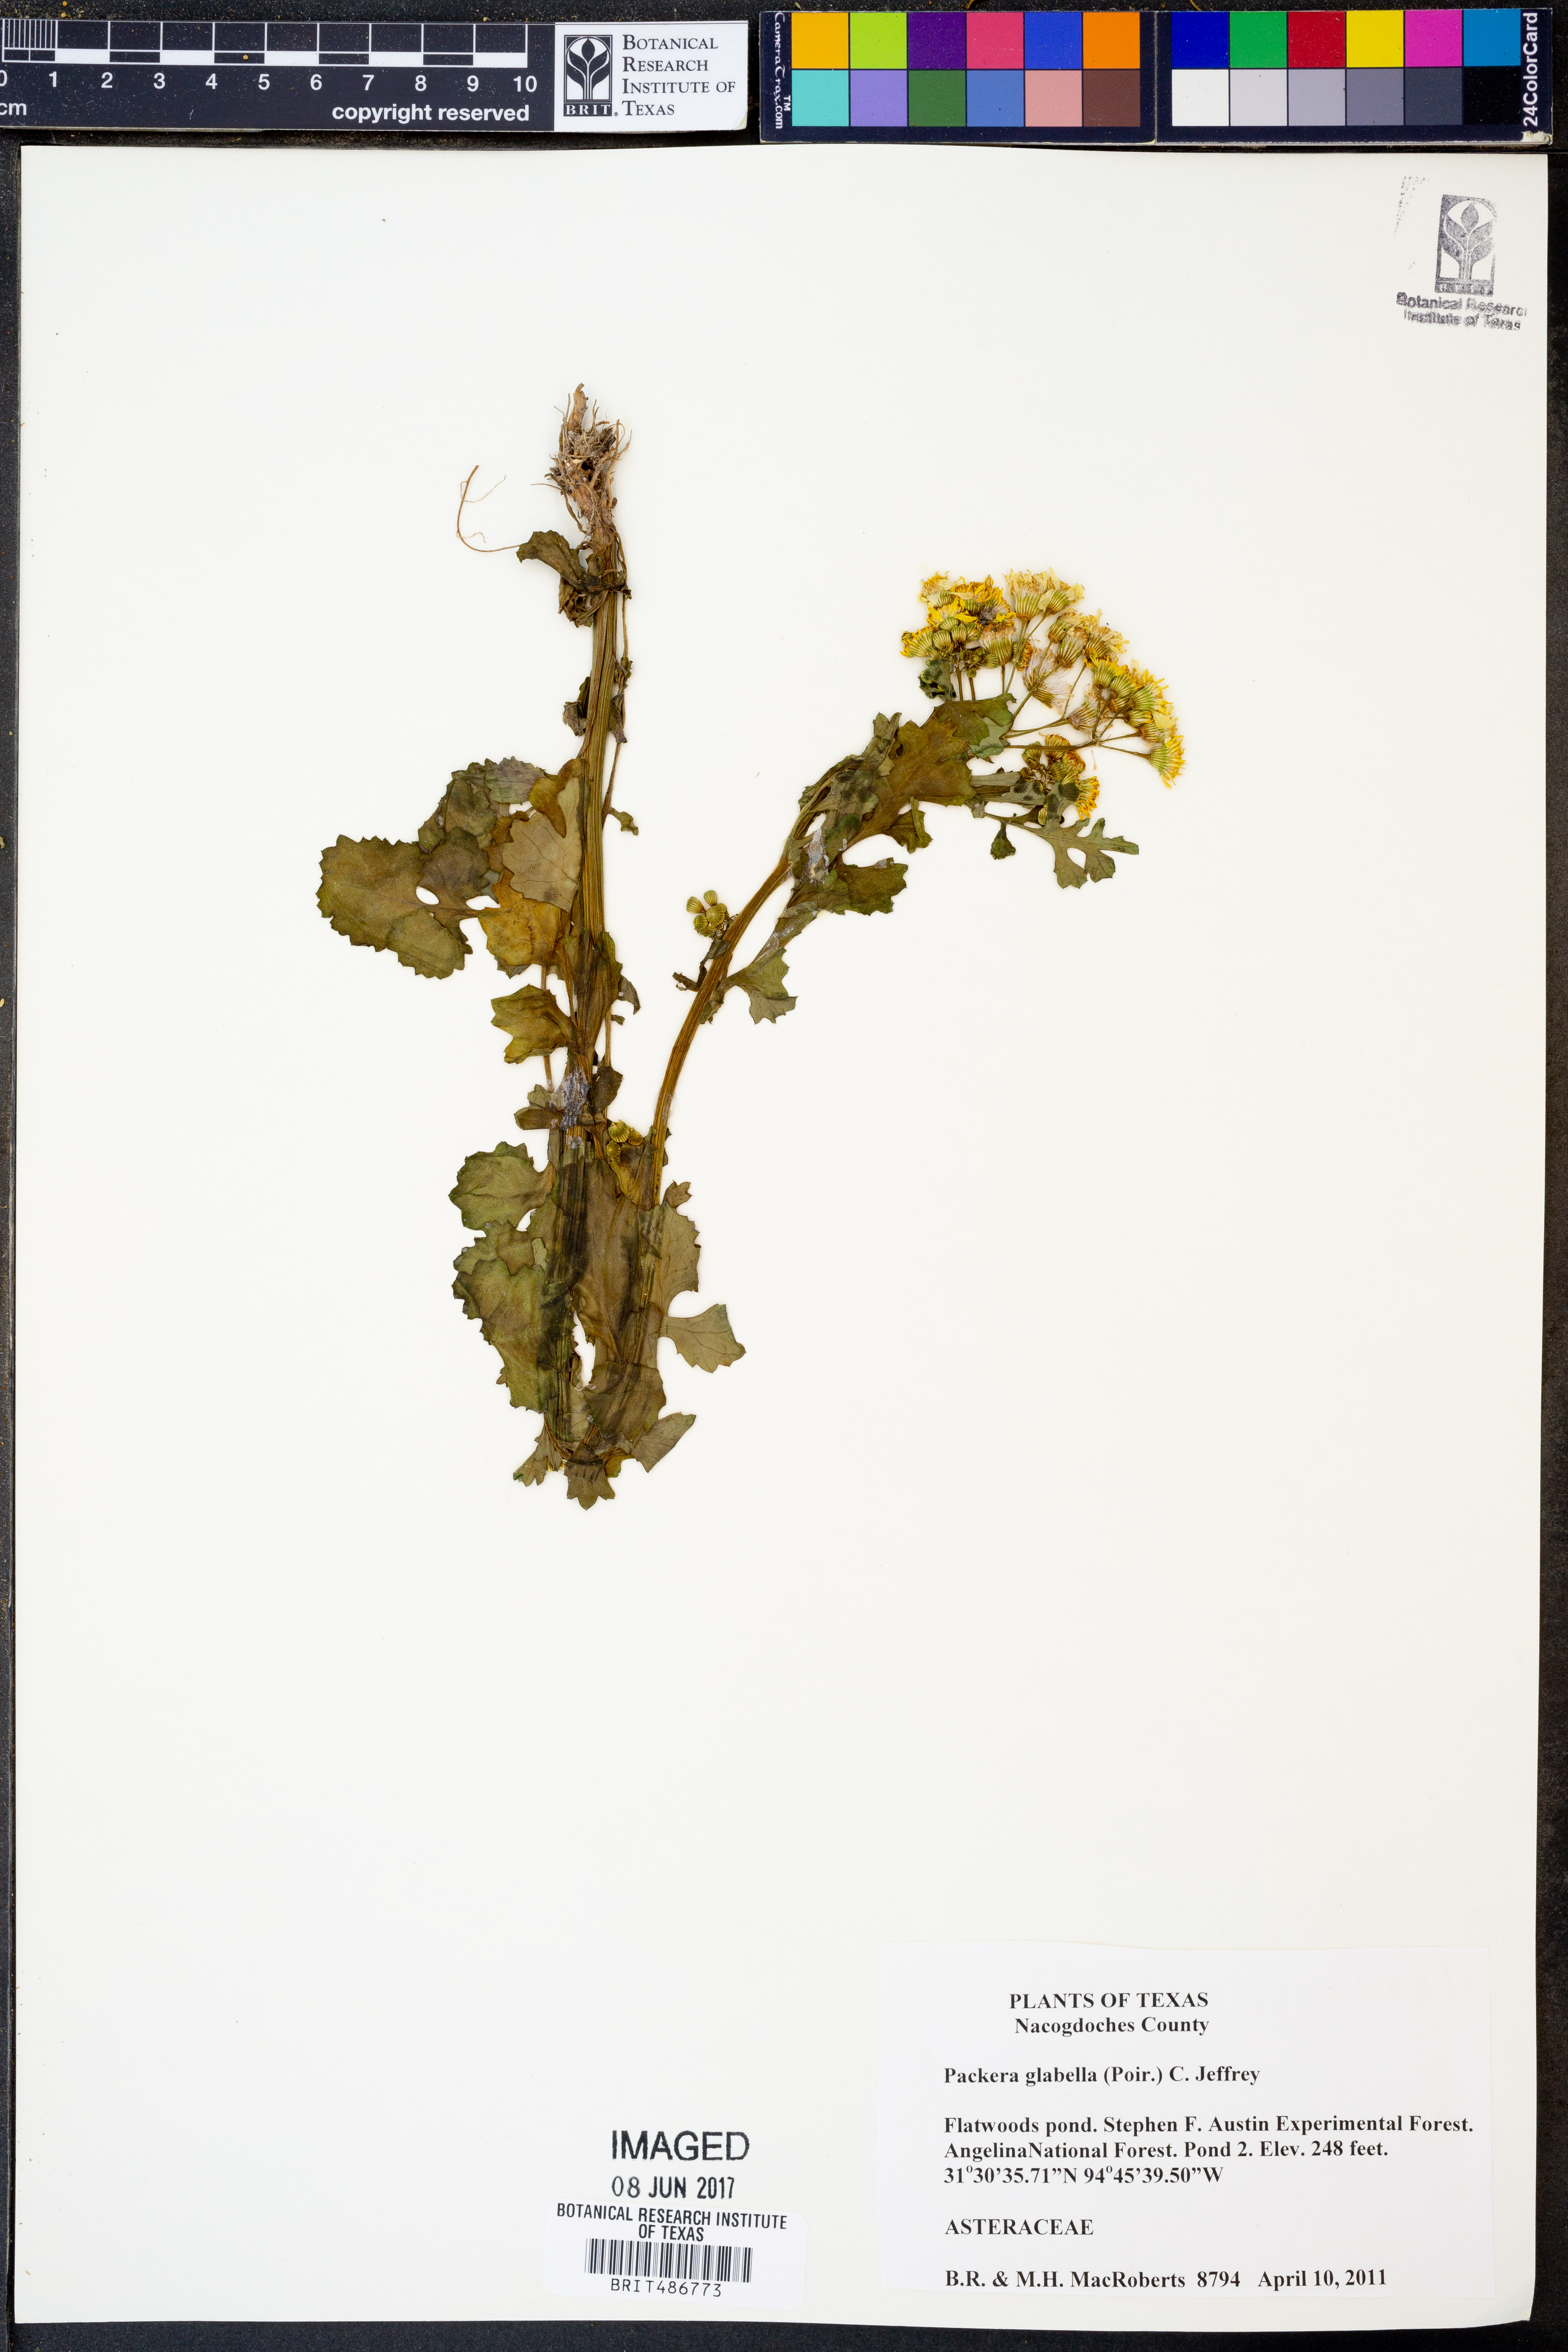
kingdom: Plantae
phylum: Tracheophyta
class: Magnoliopsida
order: Asterales
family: Asteraceae
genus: Packera
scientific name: Packera glabella
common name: Butterweed
